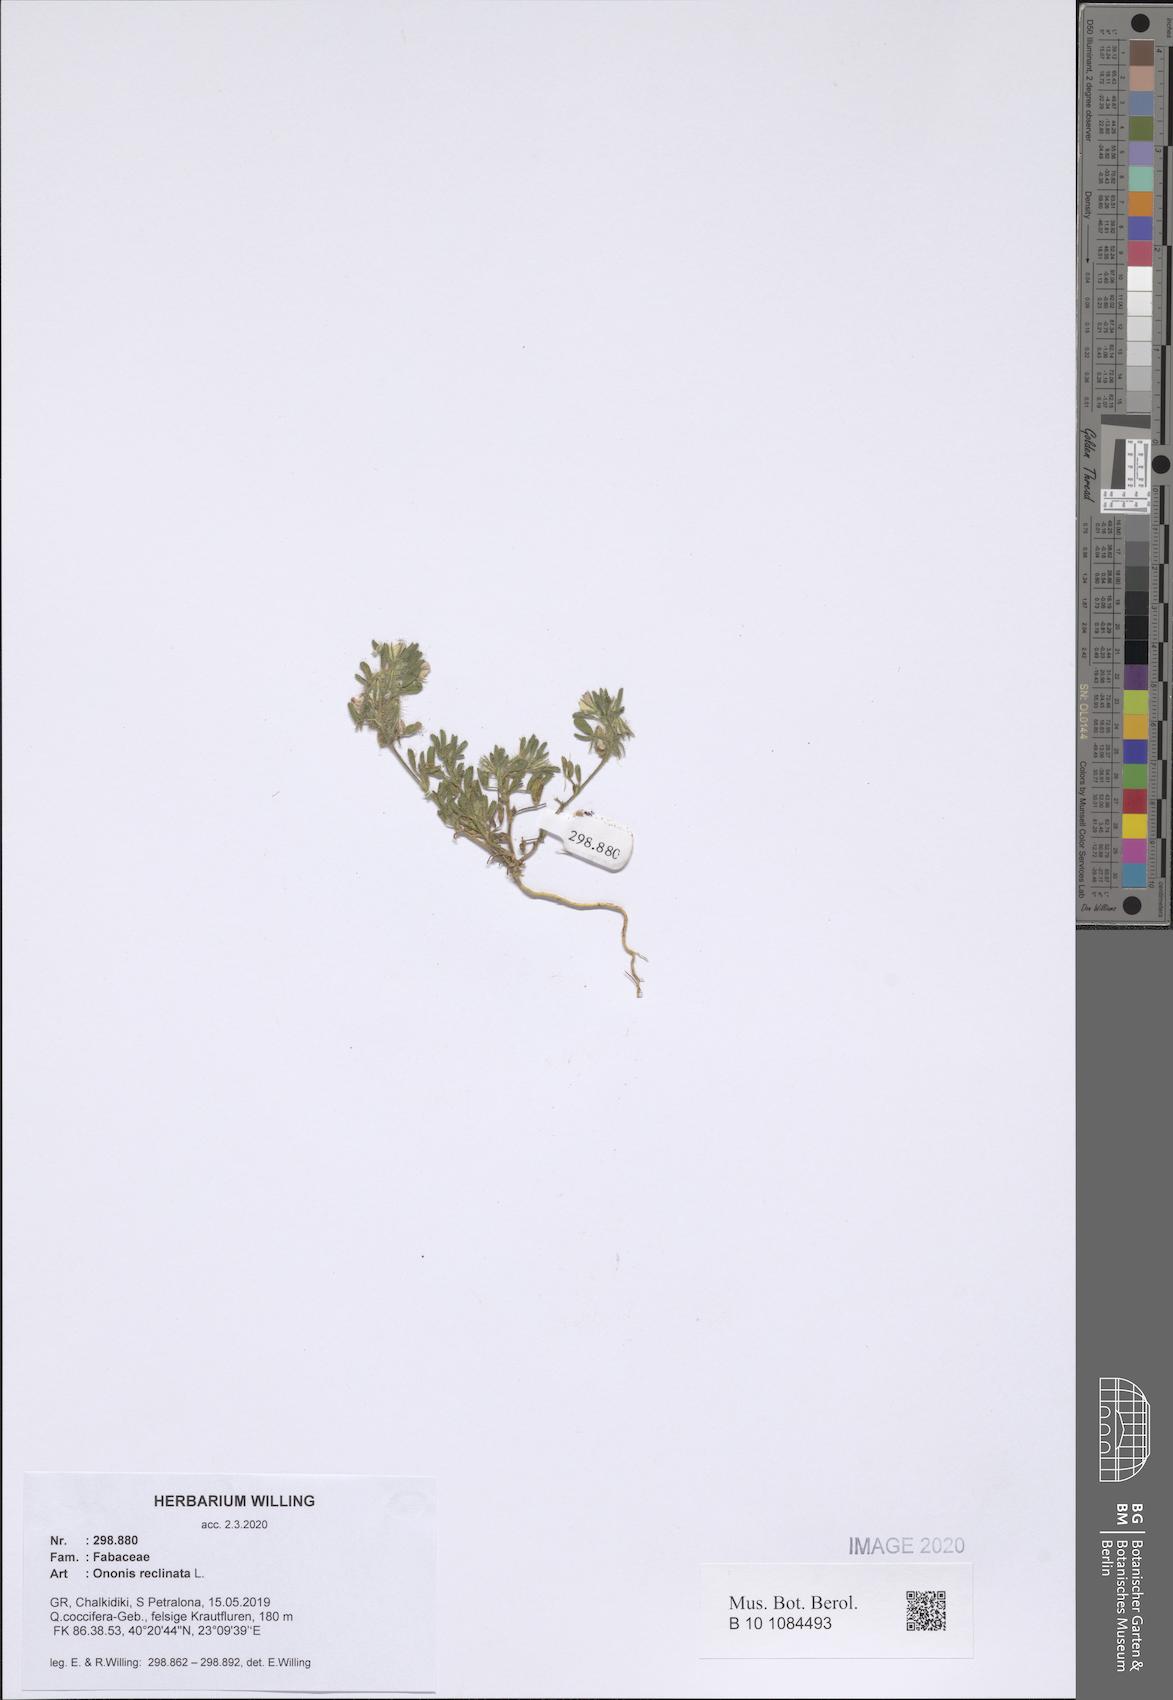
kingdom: Plantae
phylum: Tracheophyta
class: Magnoliopsida
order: Fabales
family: Fabaceae
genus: Ononis
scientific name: Ononis reclinata
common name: Small restharrow
